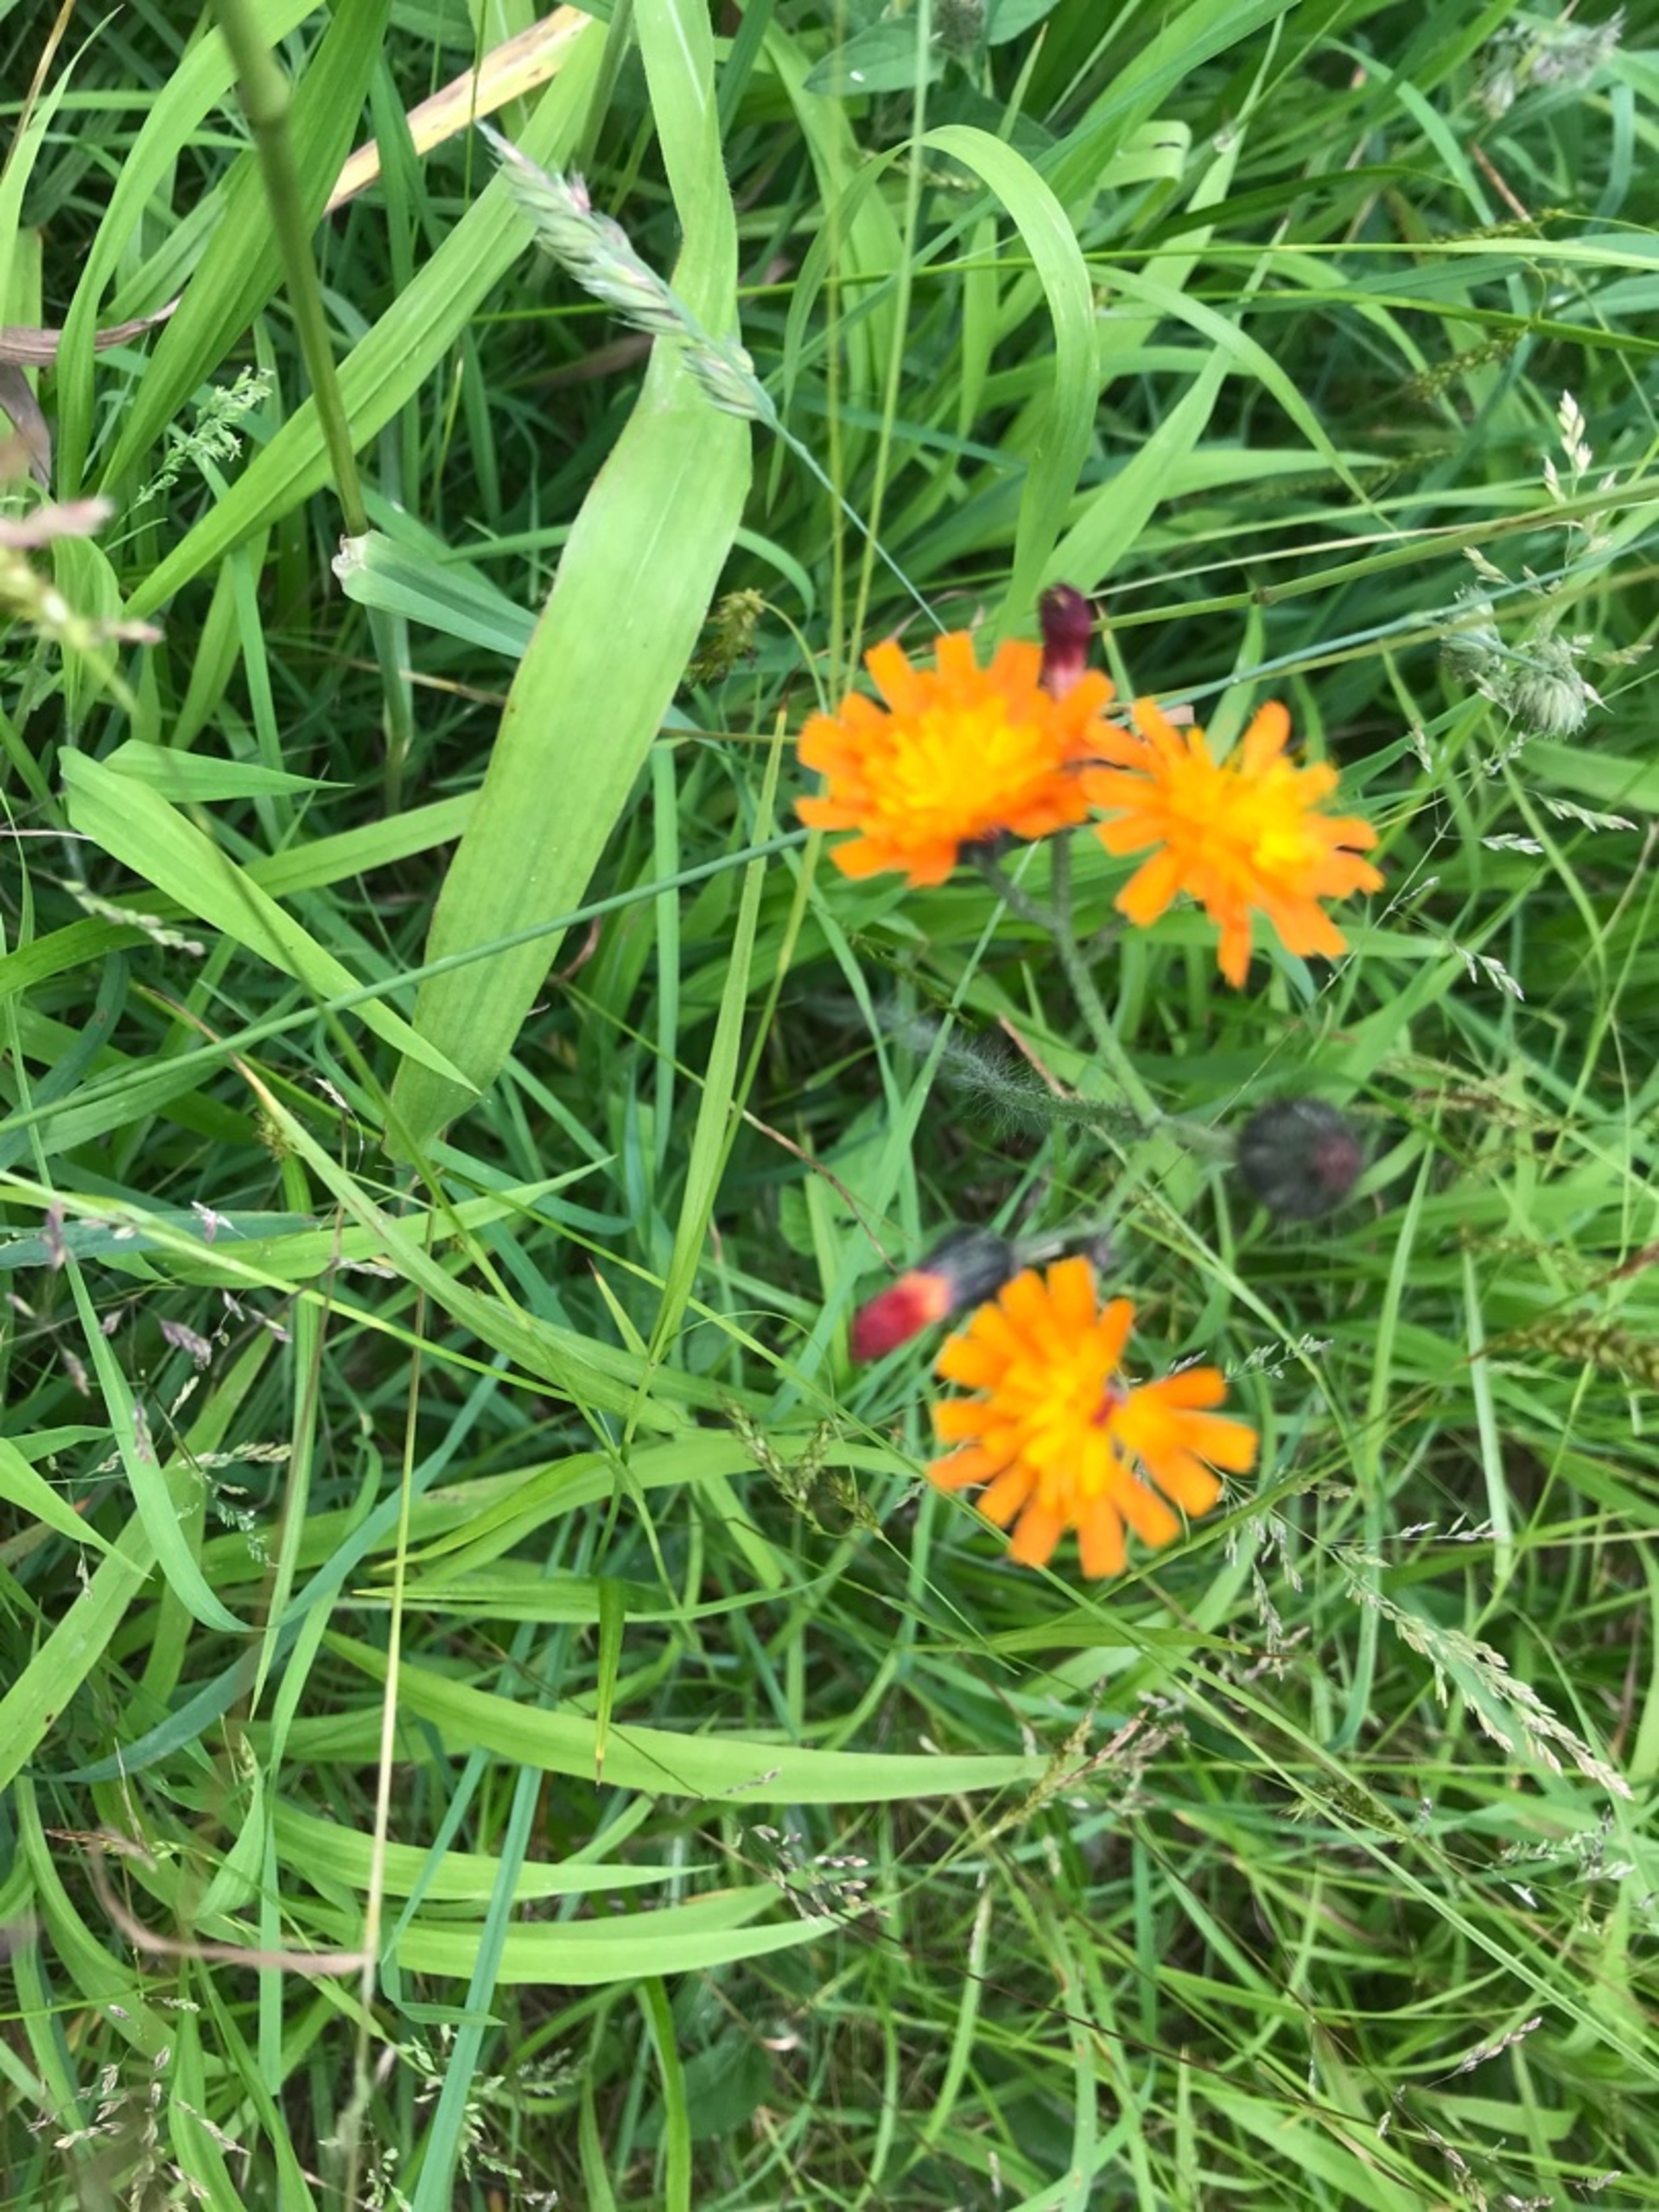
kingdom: Plantae
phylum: Tracheophyta
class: Magnoliopsida
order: Asterales
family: Asteraceae
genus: Pilosella
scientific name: Pilosella aurantiaca
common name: Pomerans-høgeurt
